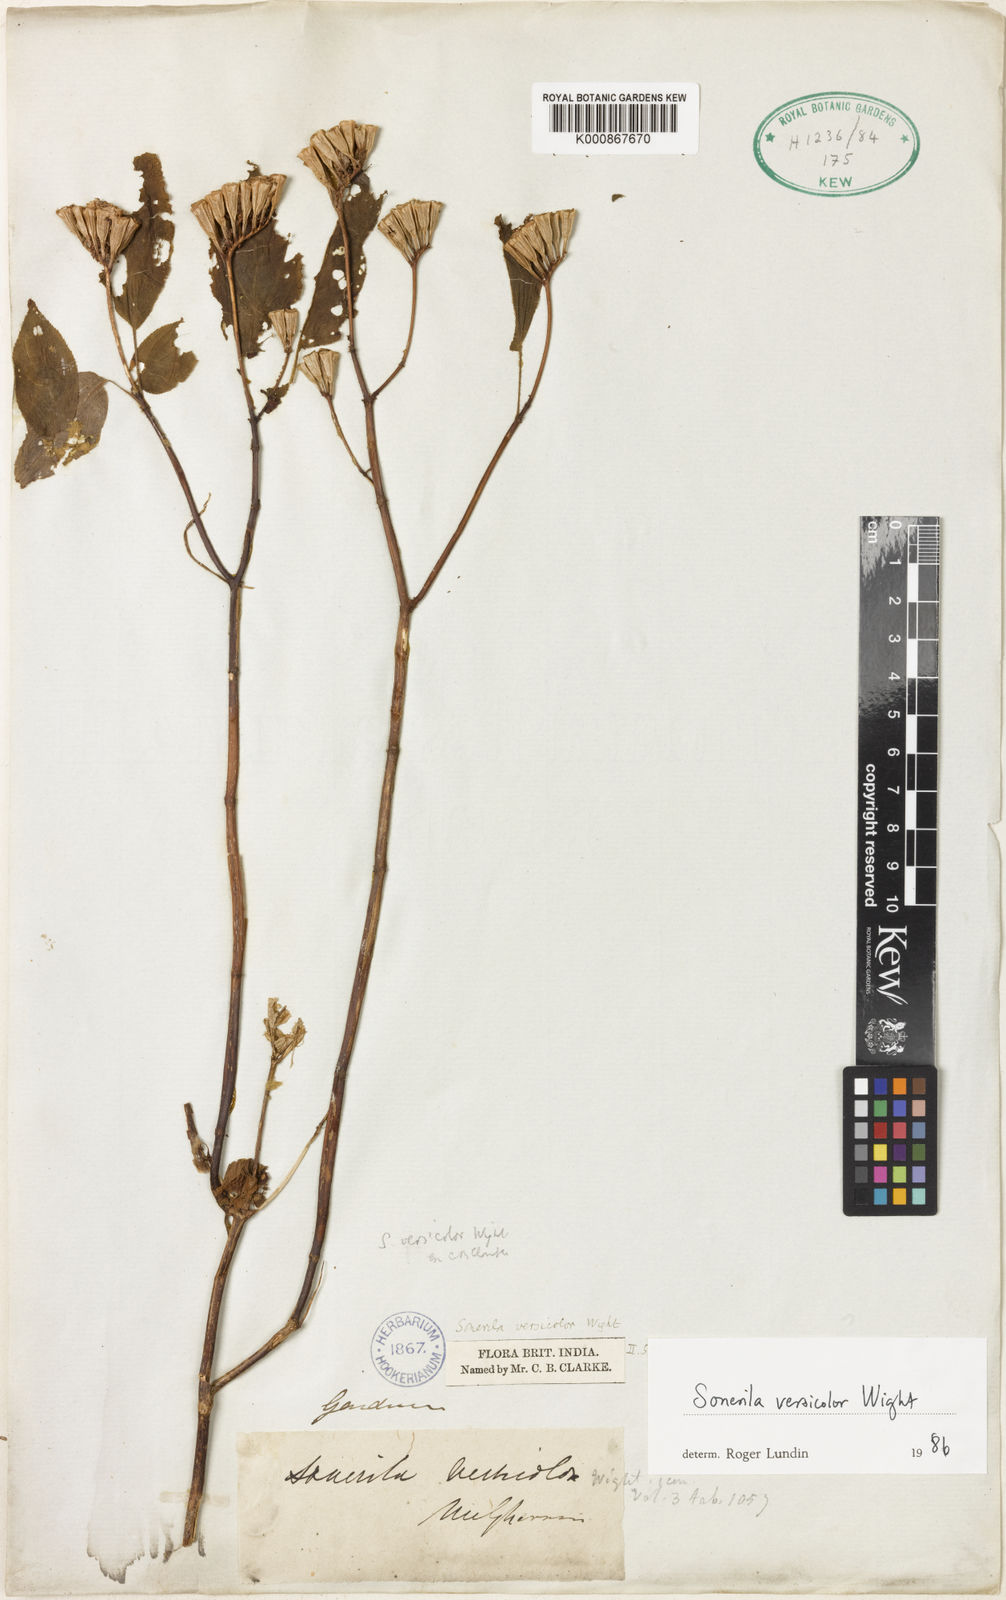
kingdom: Plantae
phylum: Tracheophyta
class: Magnoliopsida
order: Myrtales
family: Melastomataceae
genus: Sonerila
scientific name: Sonerila versicolor
